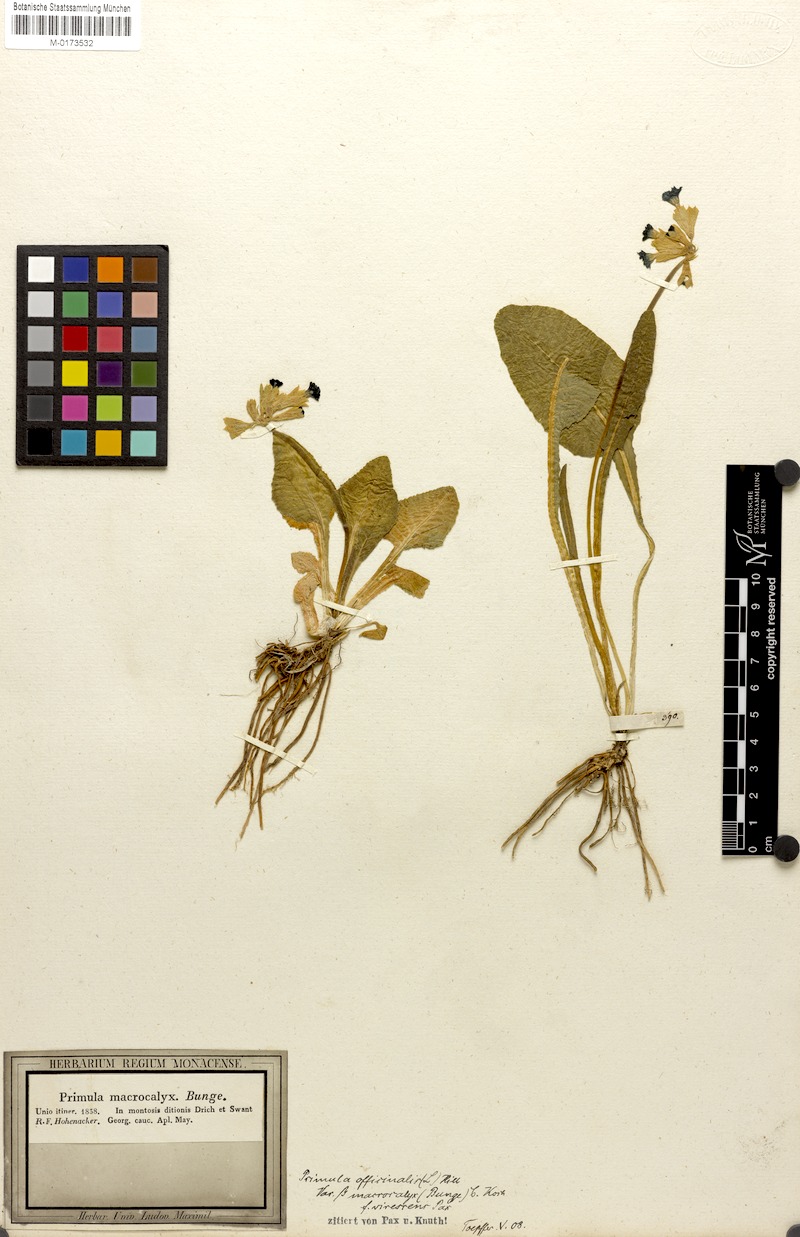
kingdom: Plantae
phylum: Tracheophyta
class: Magnoliopsida
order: Ericales
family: Primulaceae
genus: Primula
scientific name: Primula veris
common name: Cowslip
